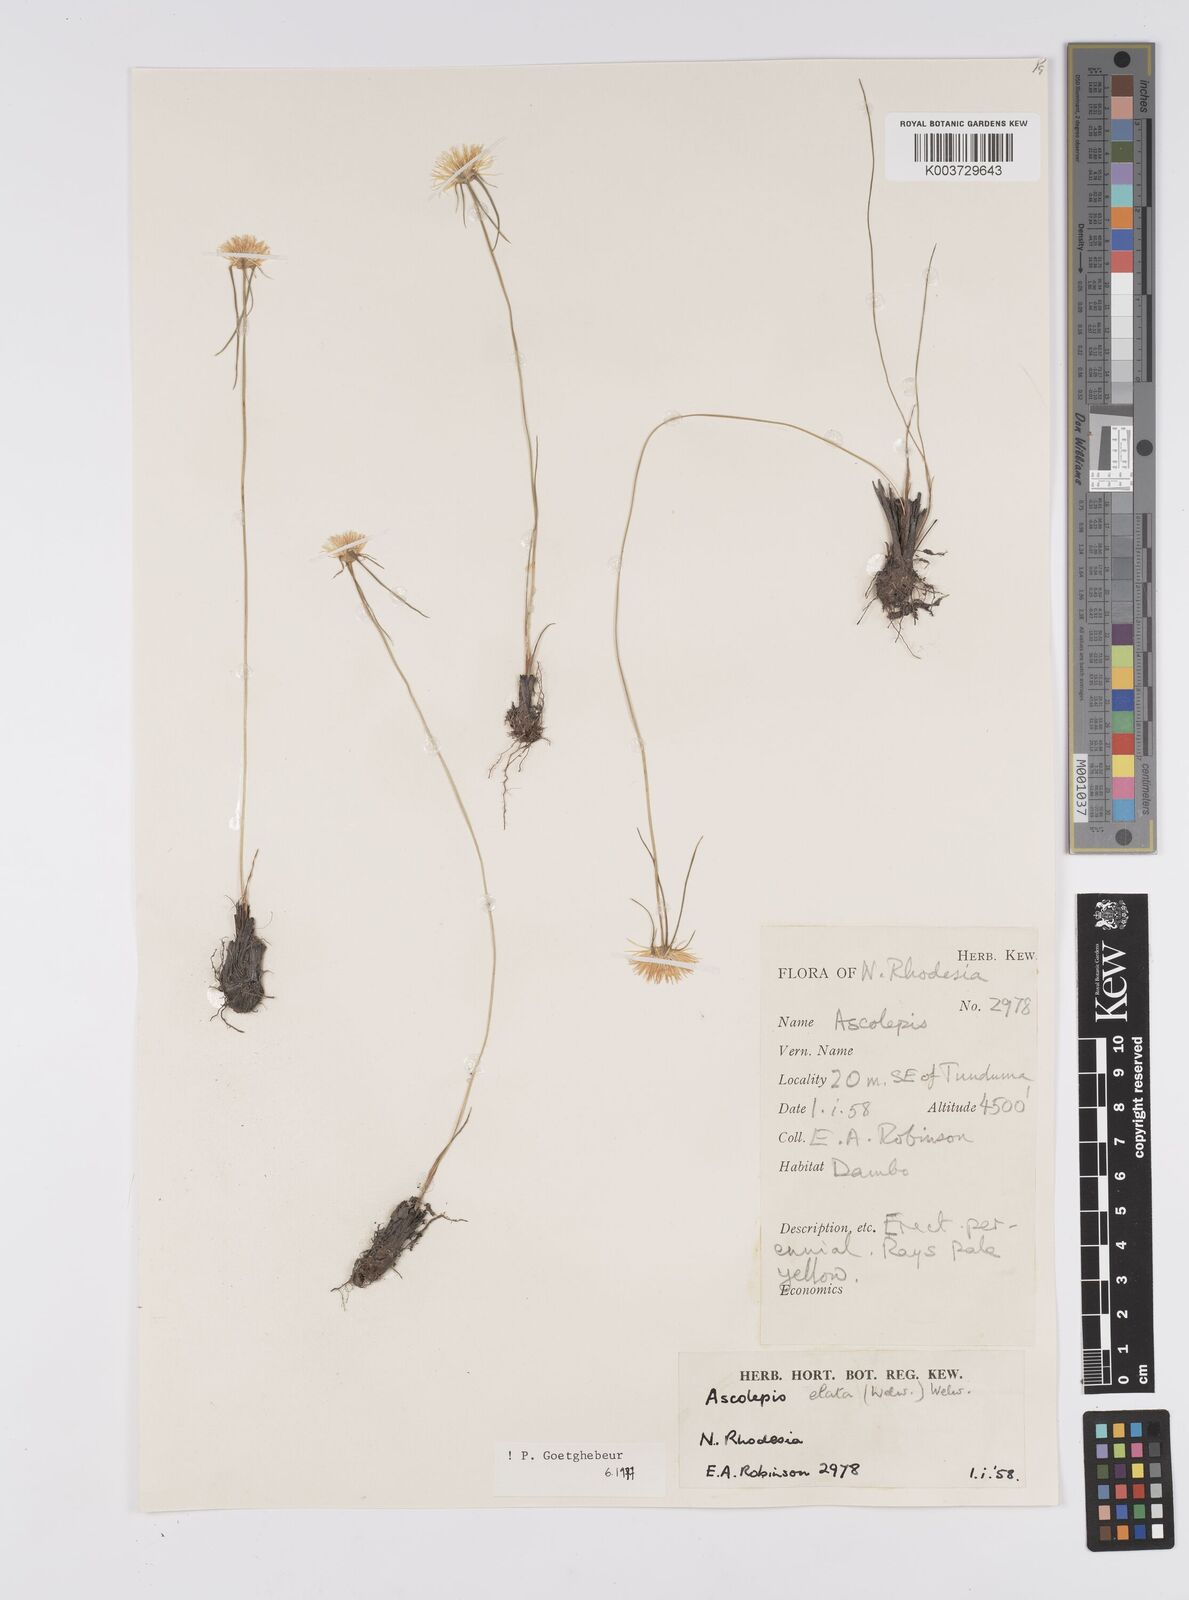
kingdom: Plantae
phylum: Tracheophyta
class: Liliopsida
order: Poales
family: Cyperaceae
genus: Cyperus
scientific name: Cyperus
